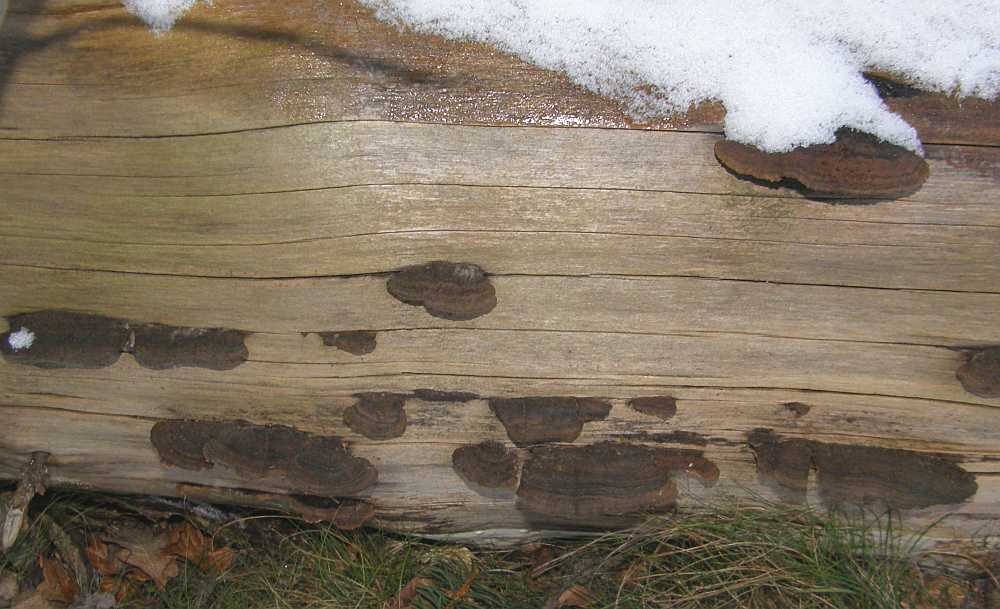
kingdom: Fungi
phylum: Basidiomycota
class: Agaricomycetes
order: Gloeophyllales
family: Gloeophyllaceae
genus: Gloeophyllum
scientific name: Gloeophyllum sepiarium
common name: fyrre-korkhat
